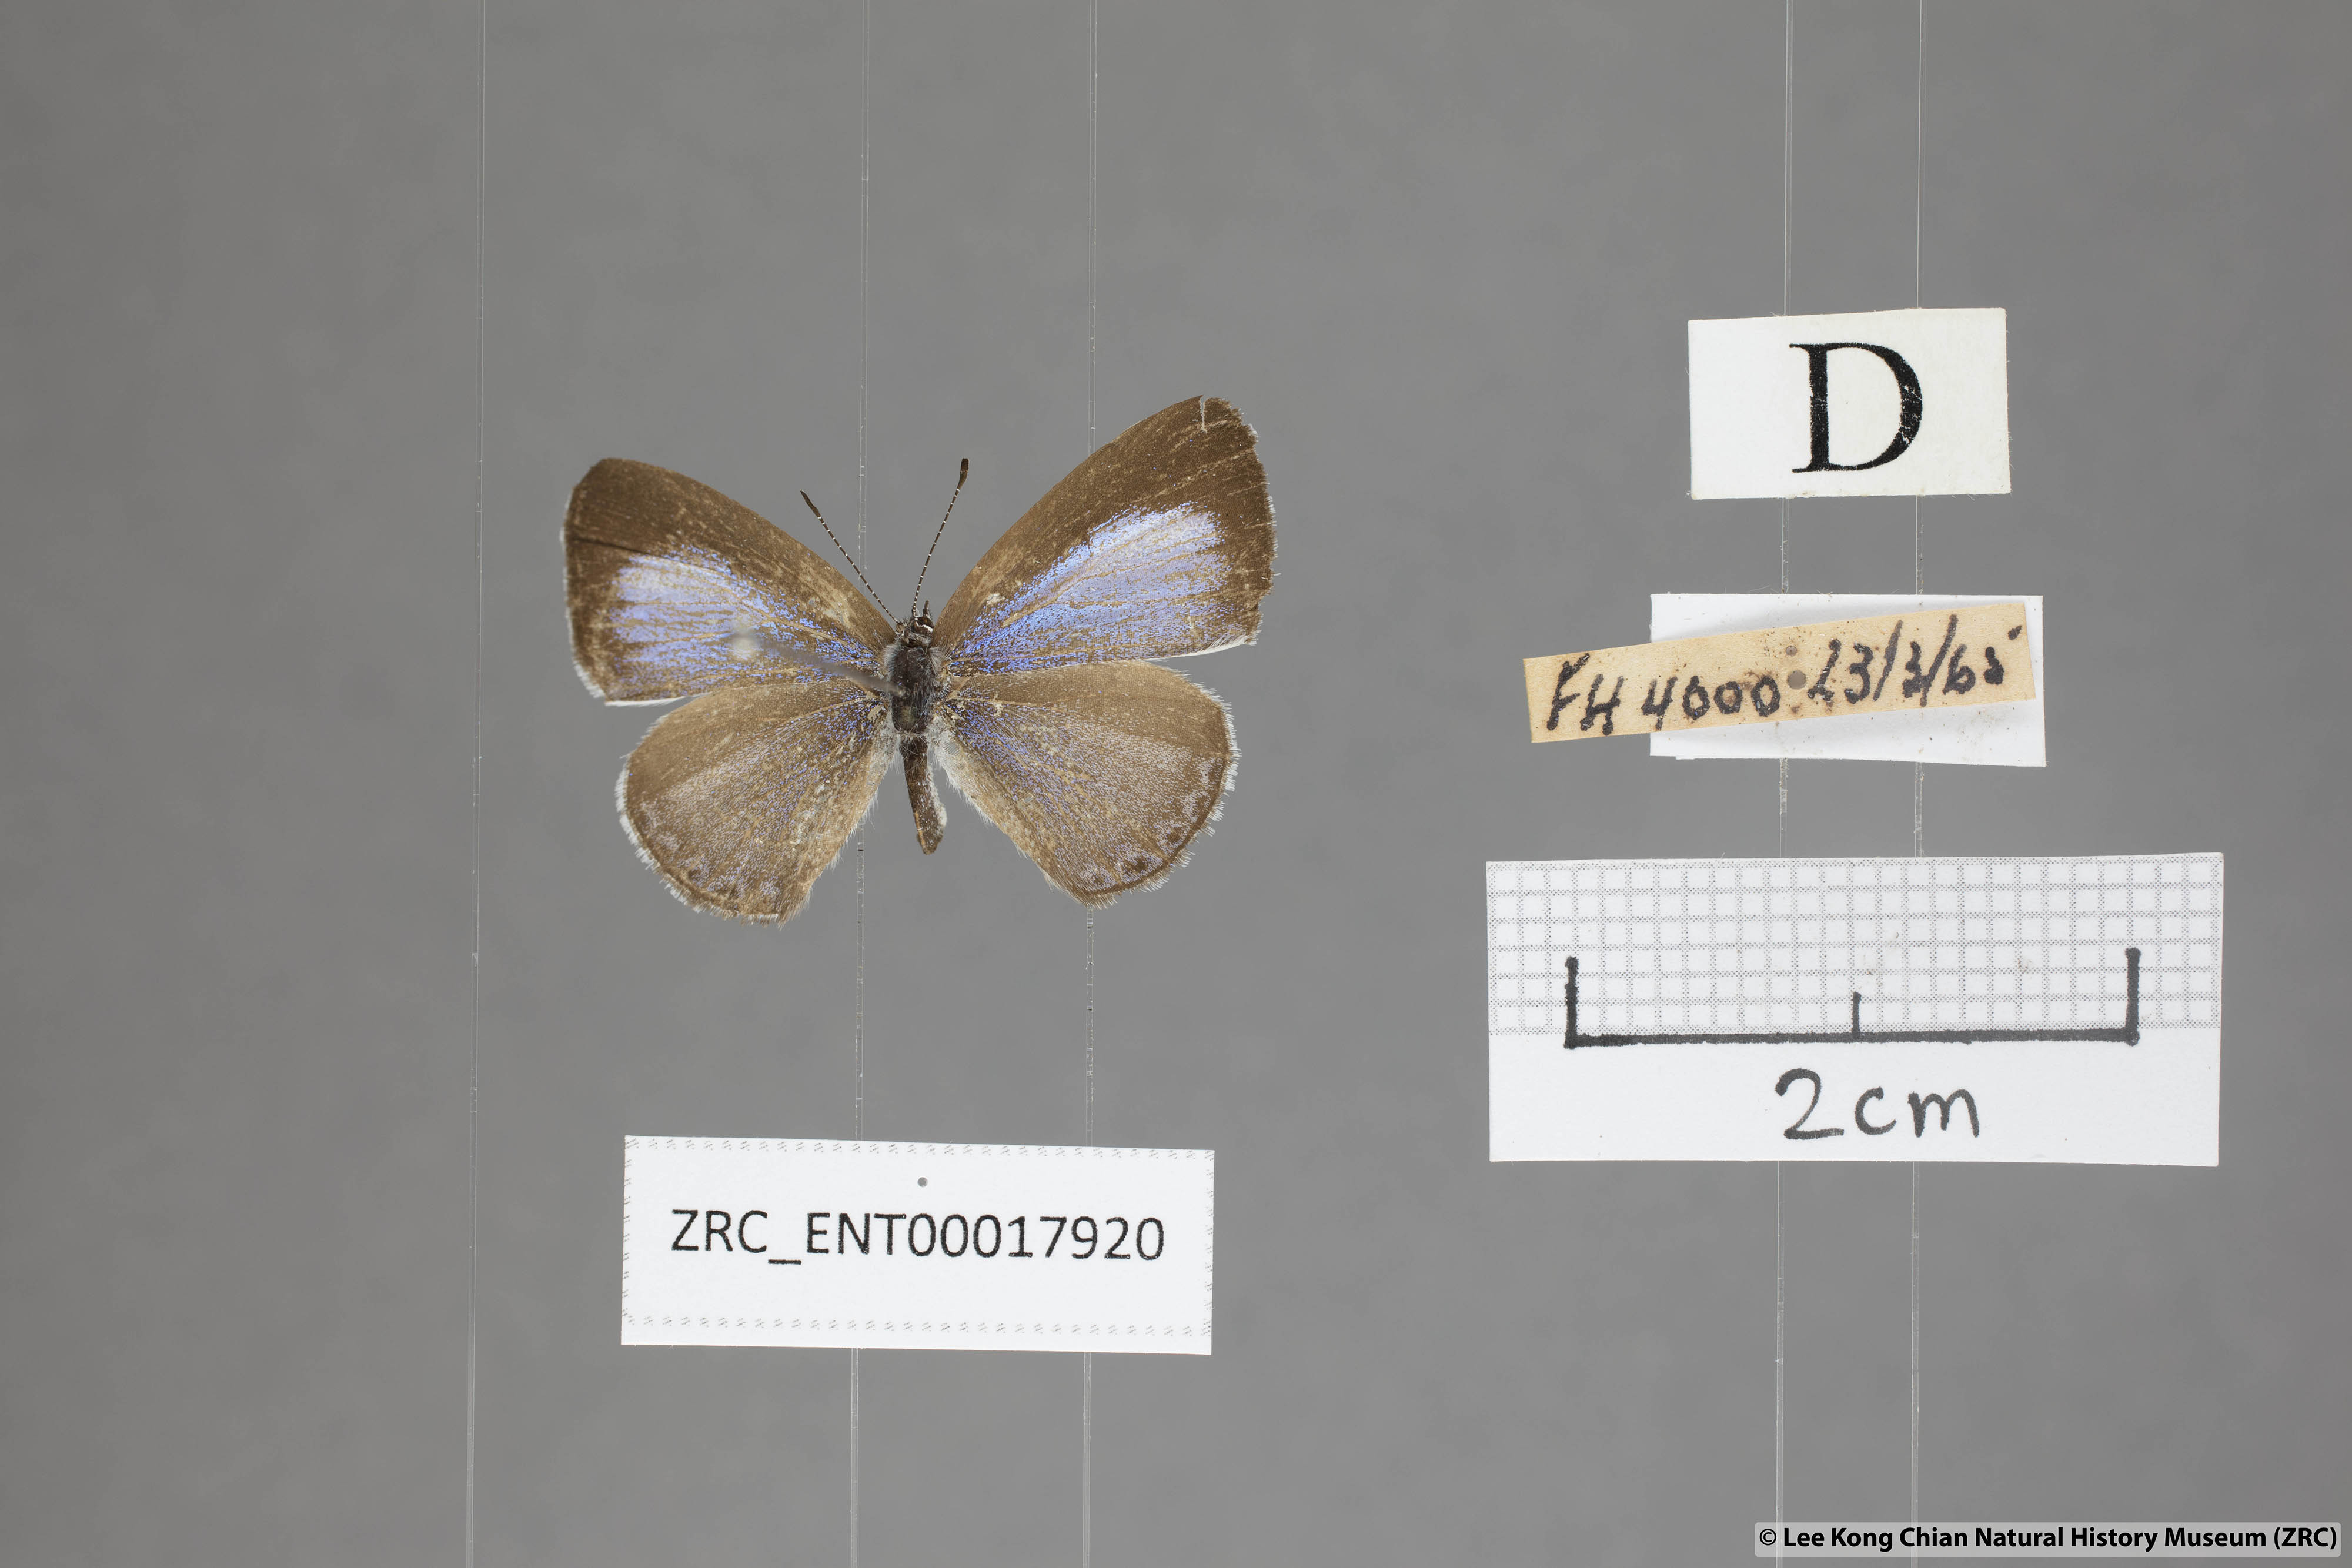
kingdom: Animalia
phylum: Arthropoda
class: Insecta
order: Lepidoptera
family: Lycaenidae
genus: Udara
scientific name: Udara
